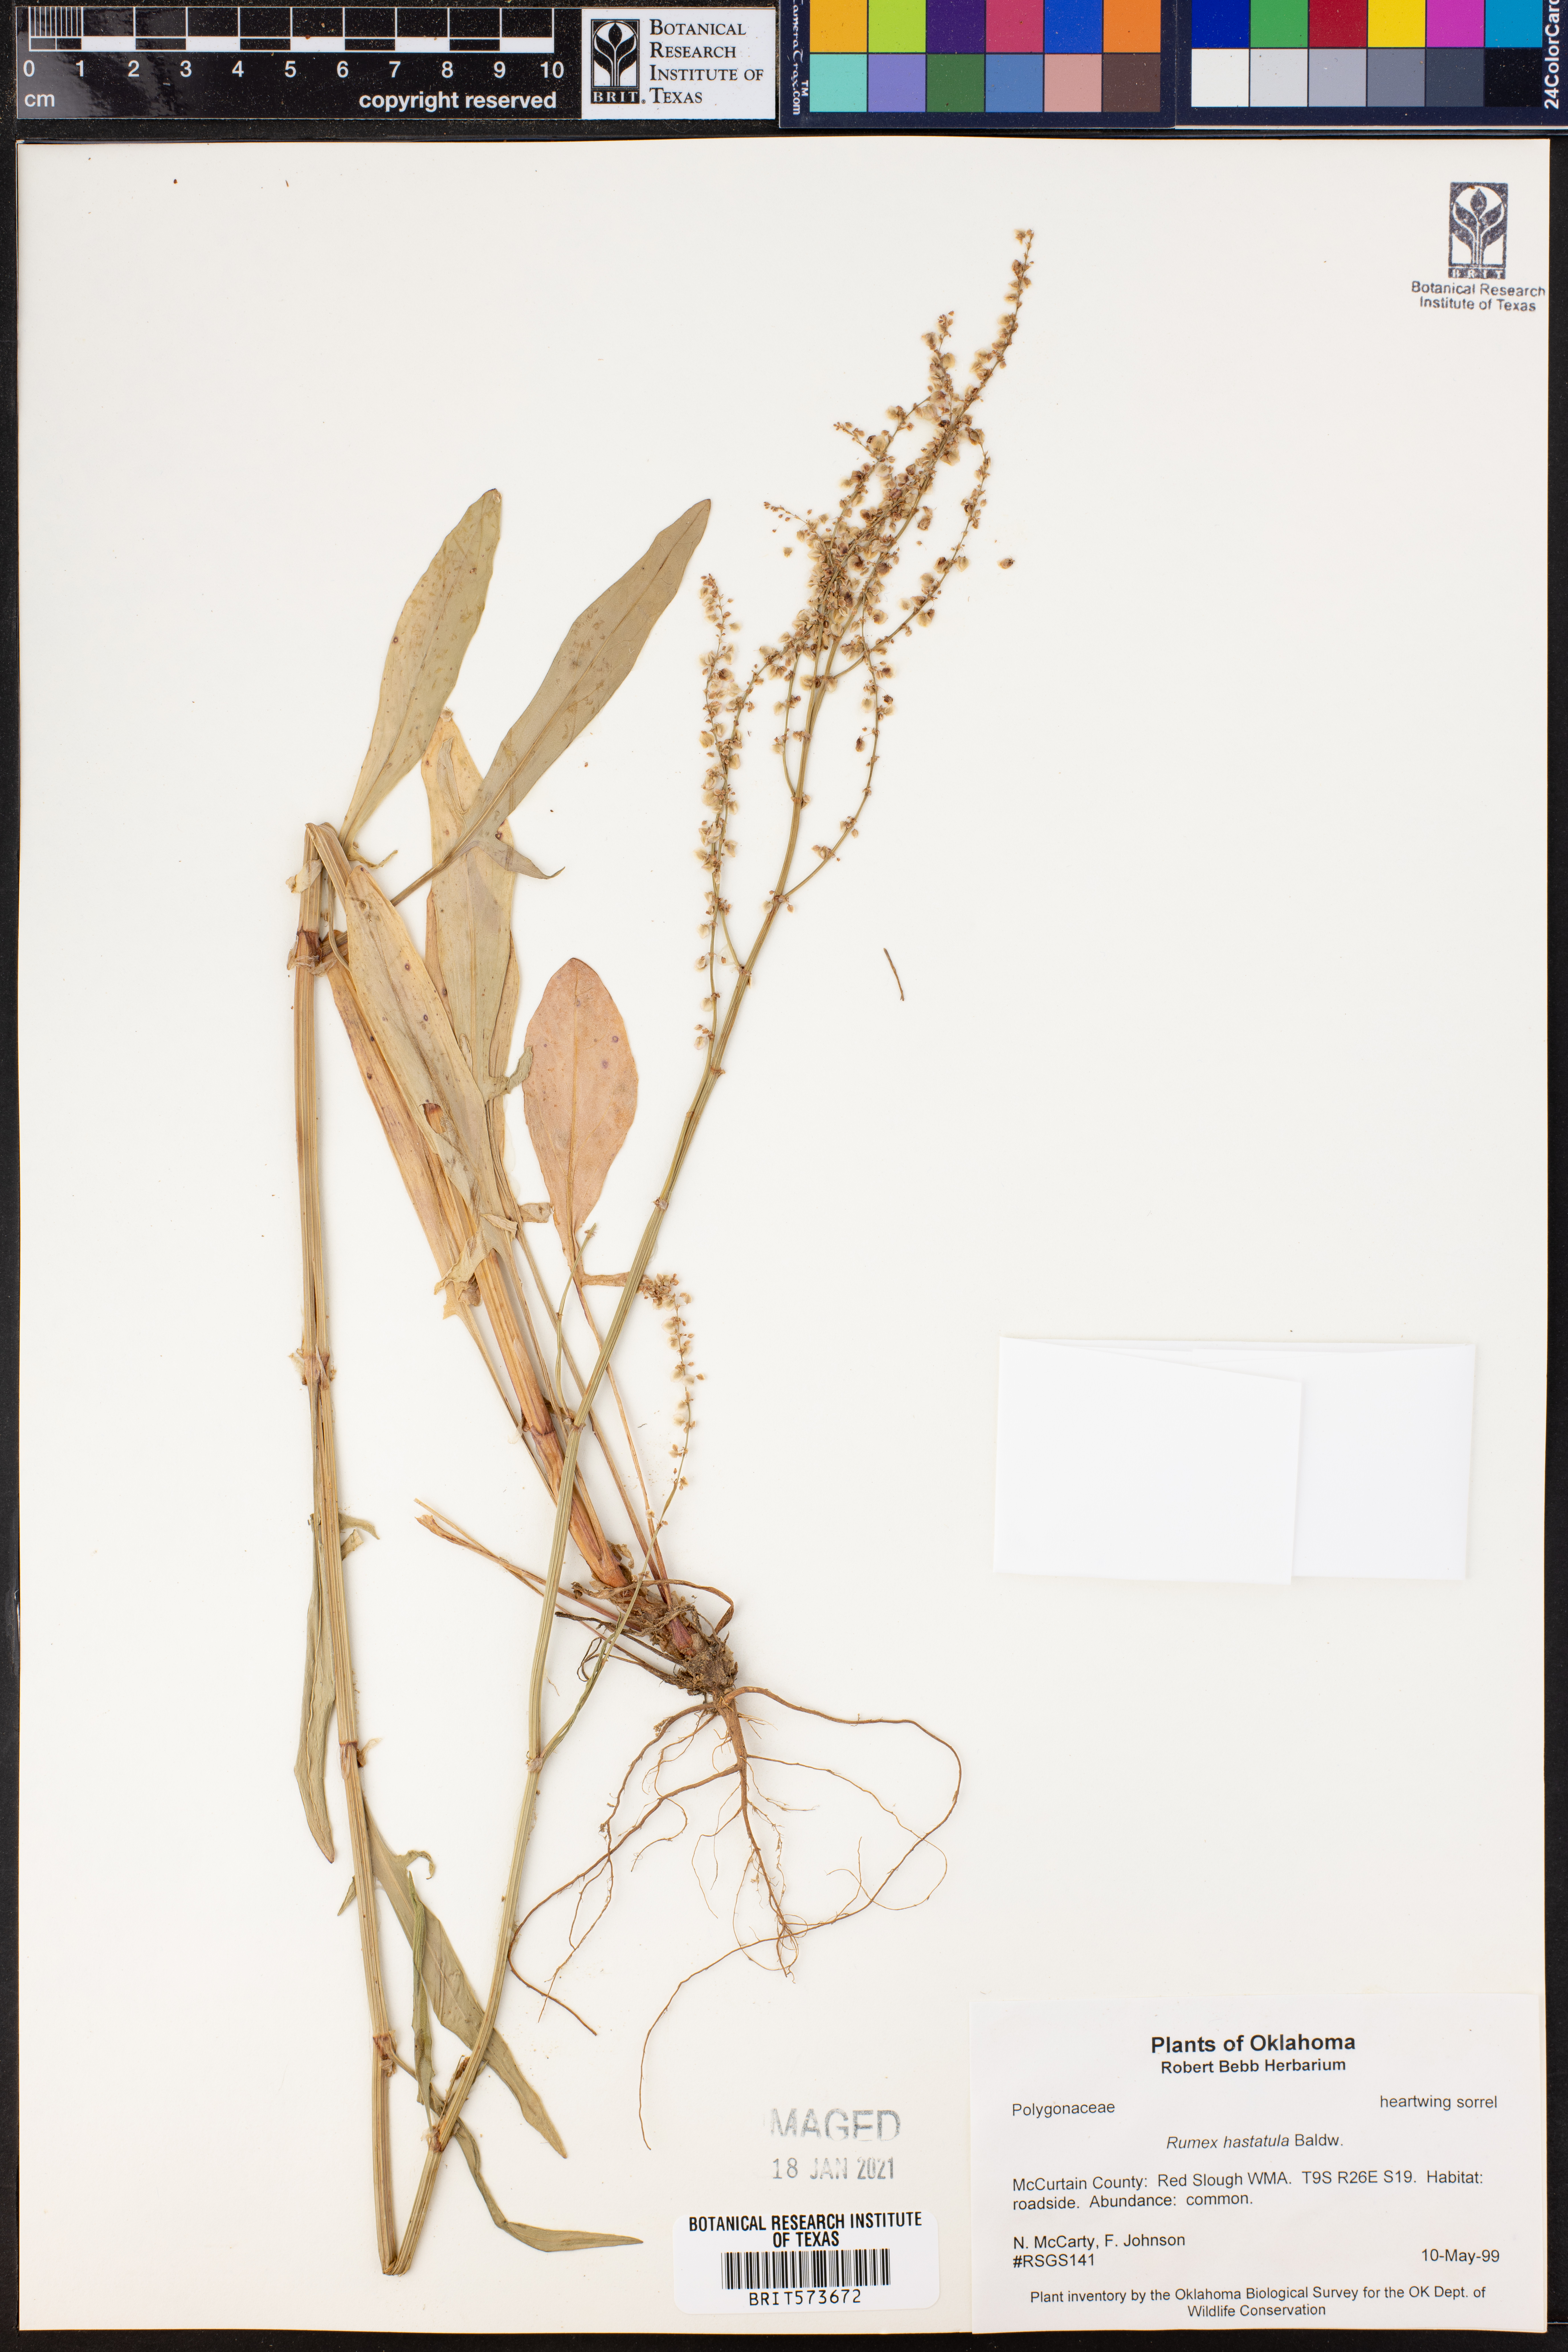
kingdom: Plantae
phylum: Tracheophyta
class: Magnoliopsida
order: Caryophyllales
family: Polygonaceae
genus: Rumex
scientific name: Rumex hastatulus
